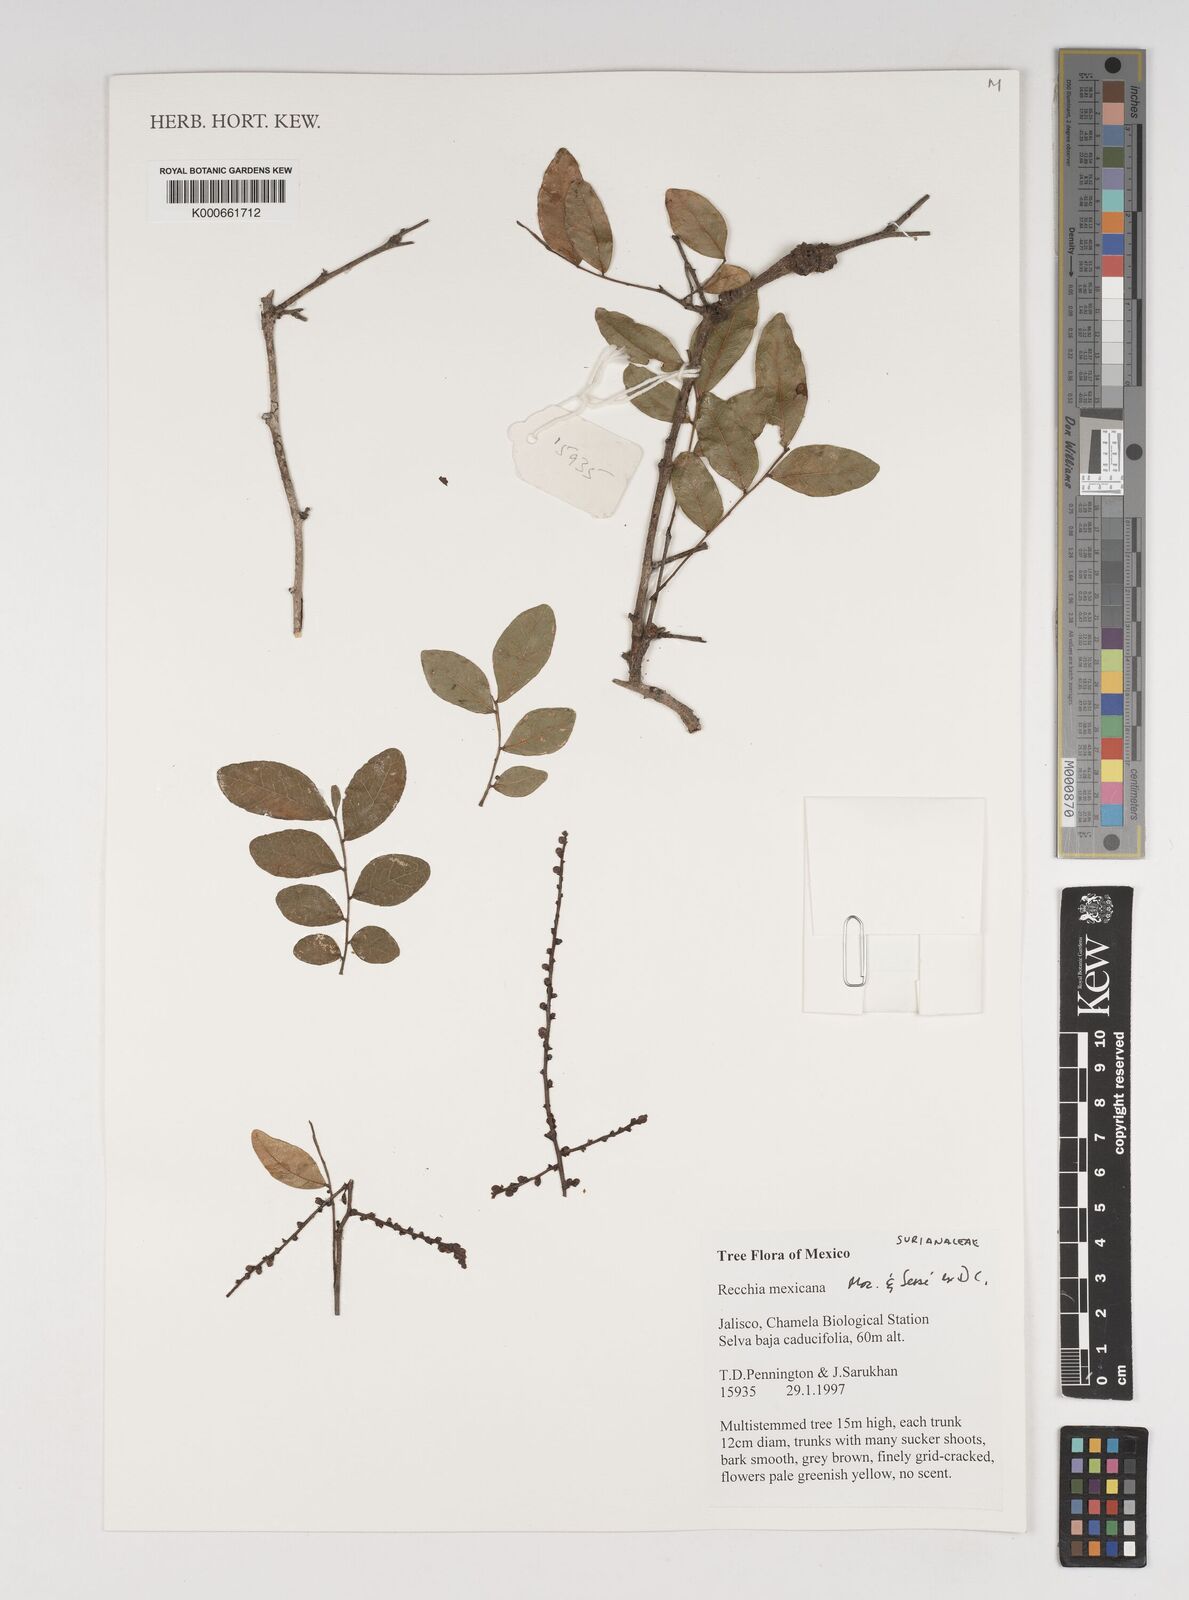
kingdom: Plantae
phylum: Tracheophyta
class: Magnoliopsida
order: Fabales
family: Surianaceae
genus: Recchia
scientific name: Recchia
